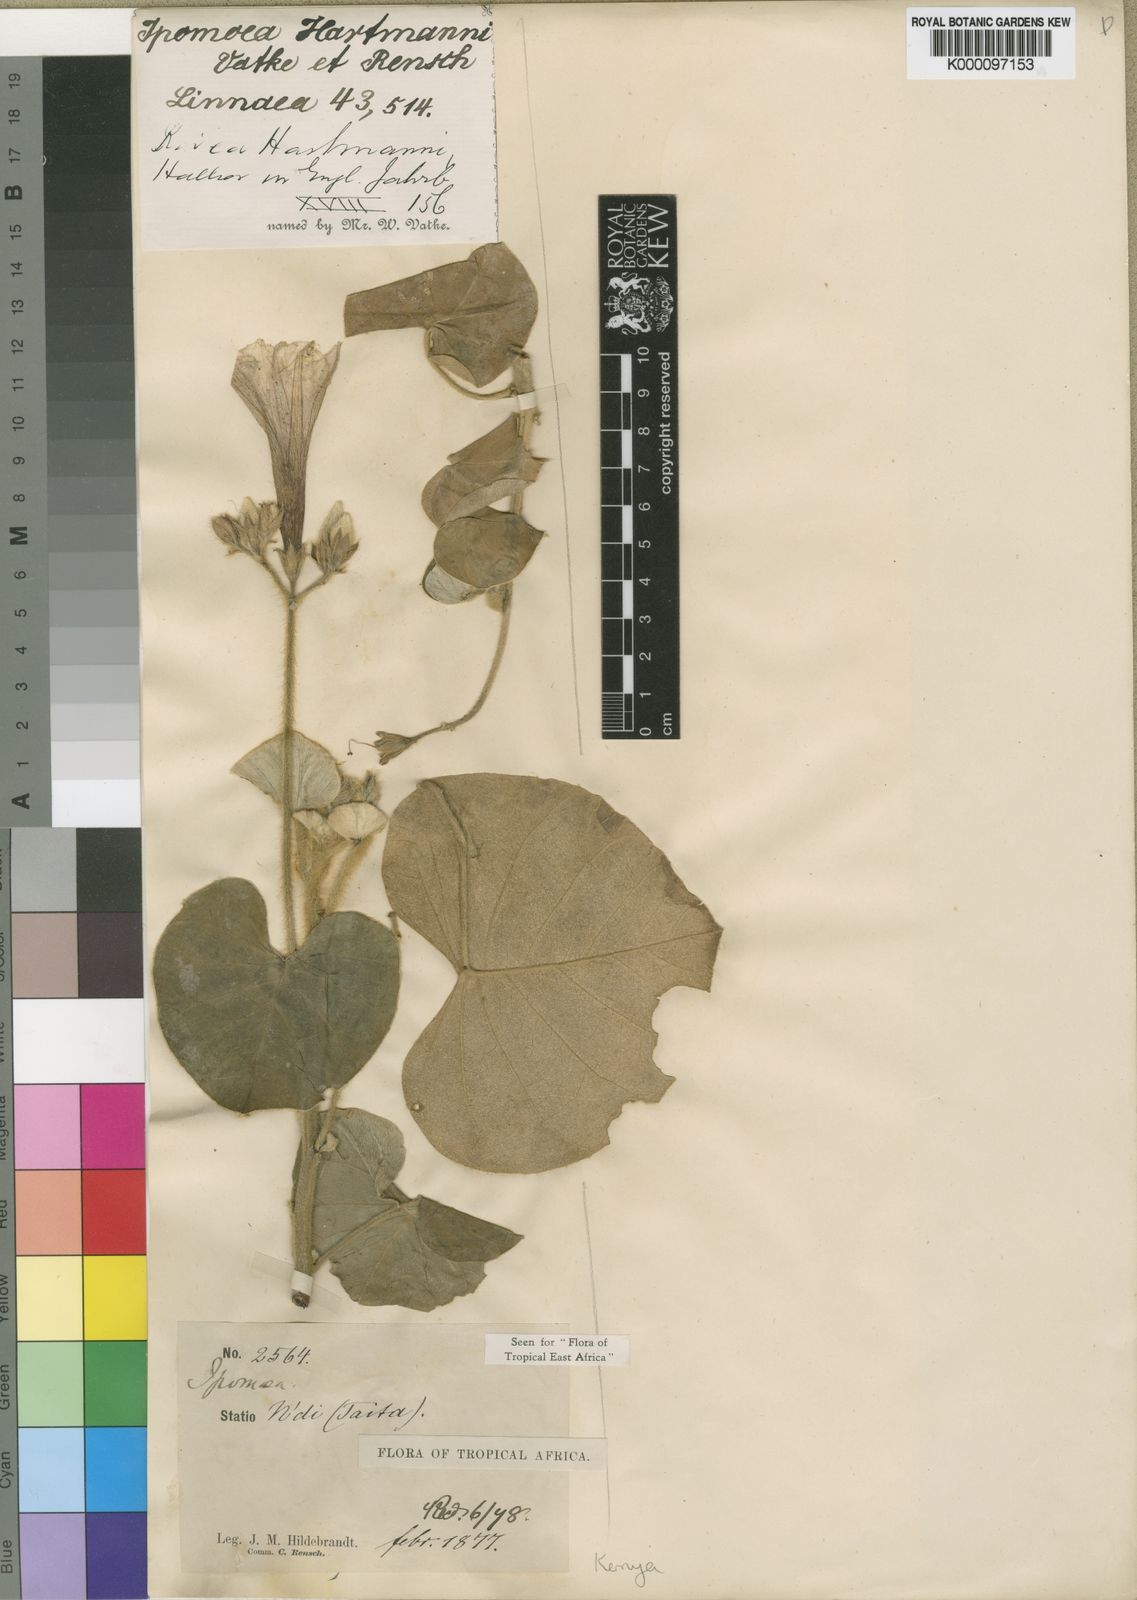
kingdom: Plantae
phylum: Tracheophyta
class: Magnoliopsida
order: Solanales
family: Convolvulaceae
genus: Ipomoea
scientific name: Ipomoea hartmannii
